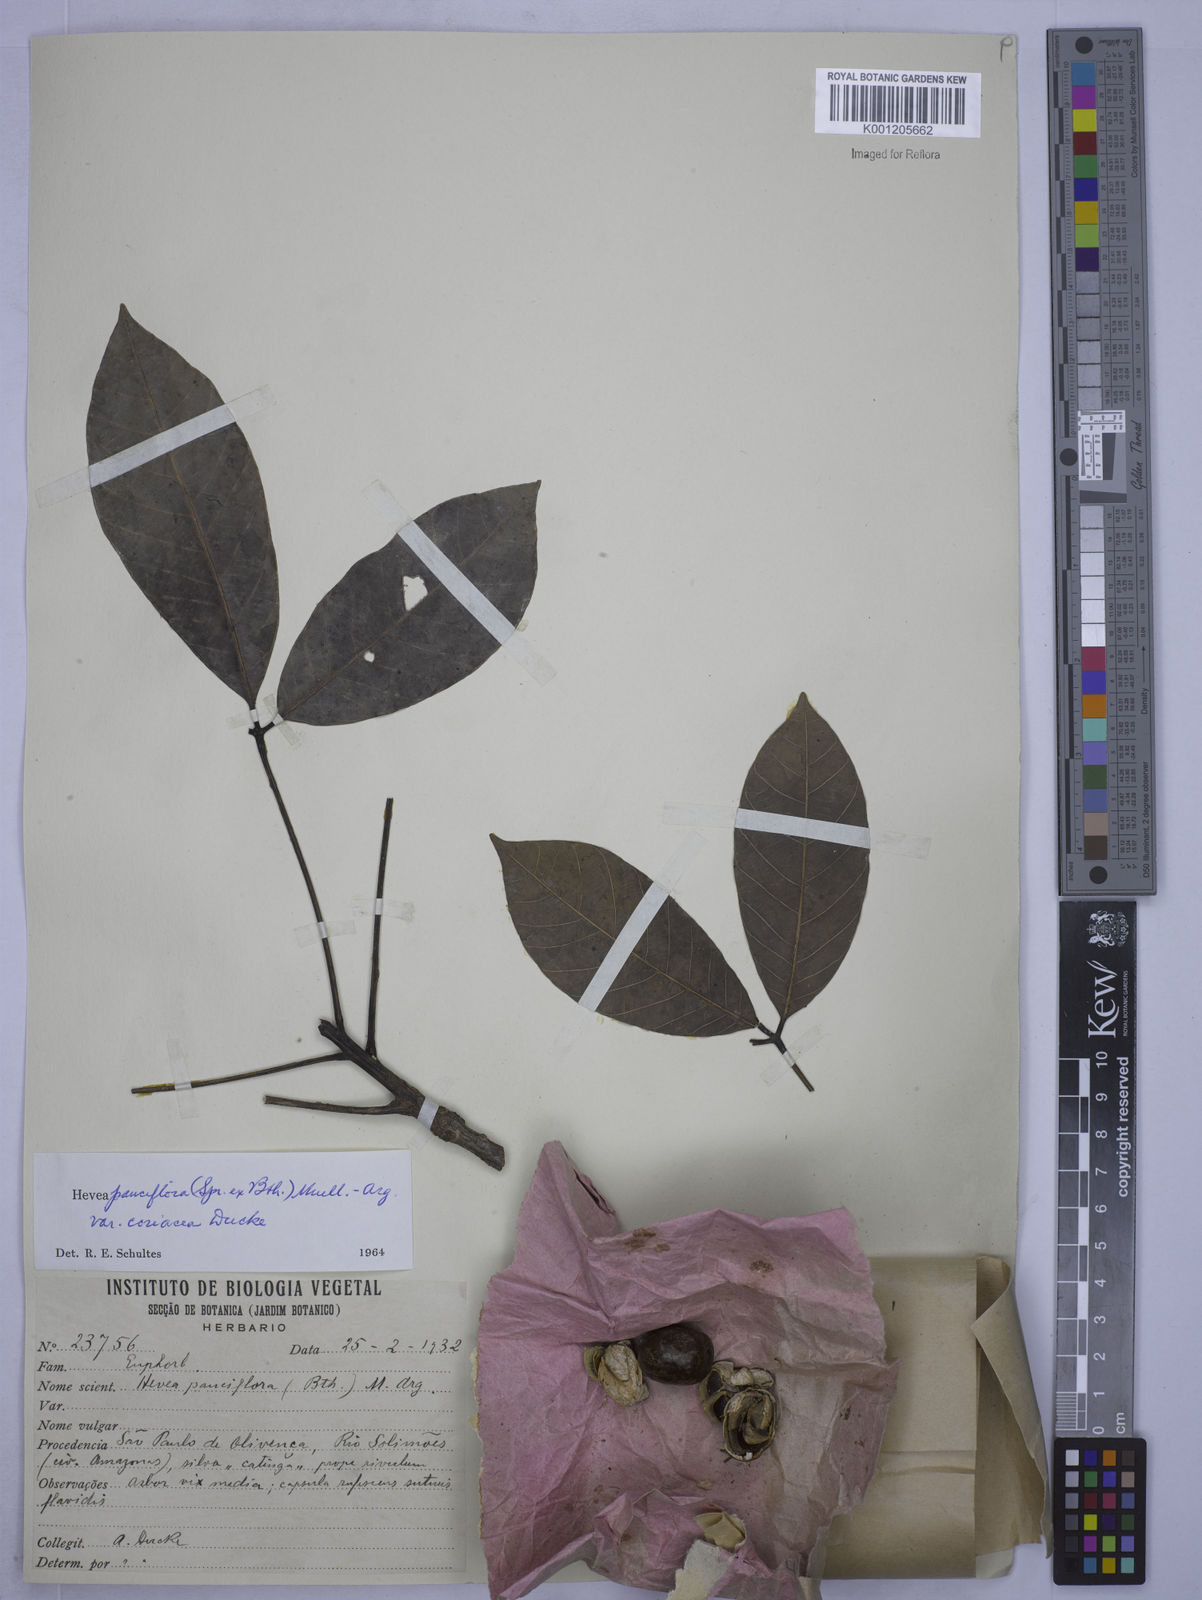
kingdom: Plantae
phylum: Tracheophyta
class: Magnoliopsida
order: Malpighiales
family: Euphorbiaceae
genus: Hevea
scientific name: Hevea pauciflora
